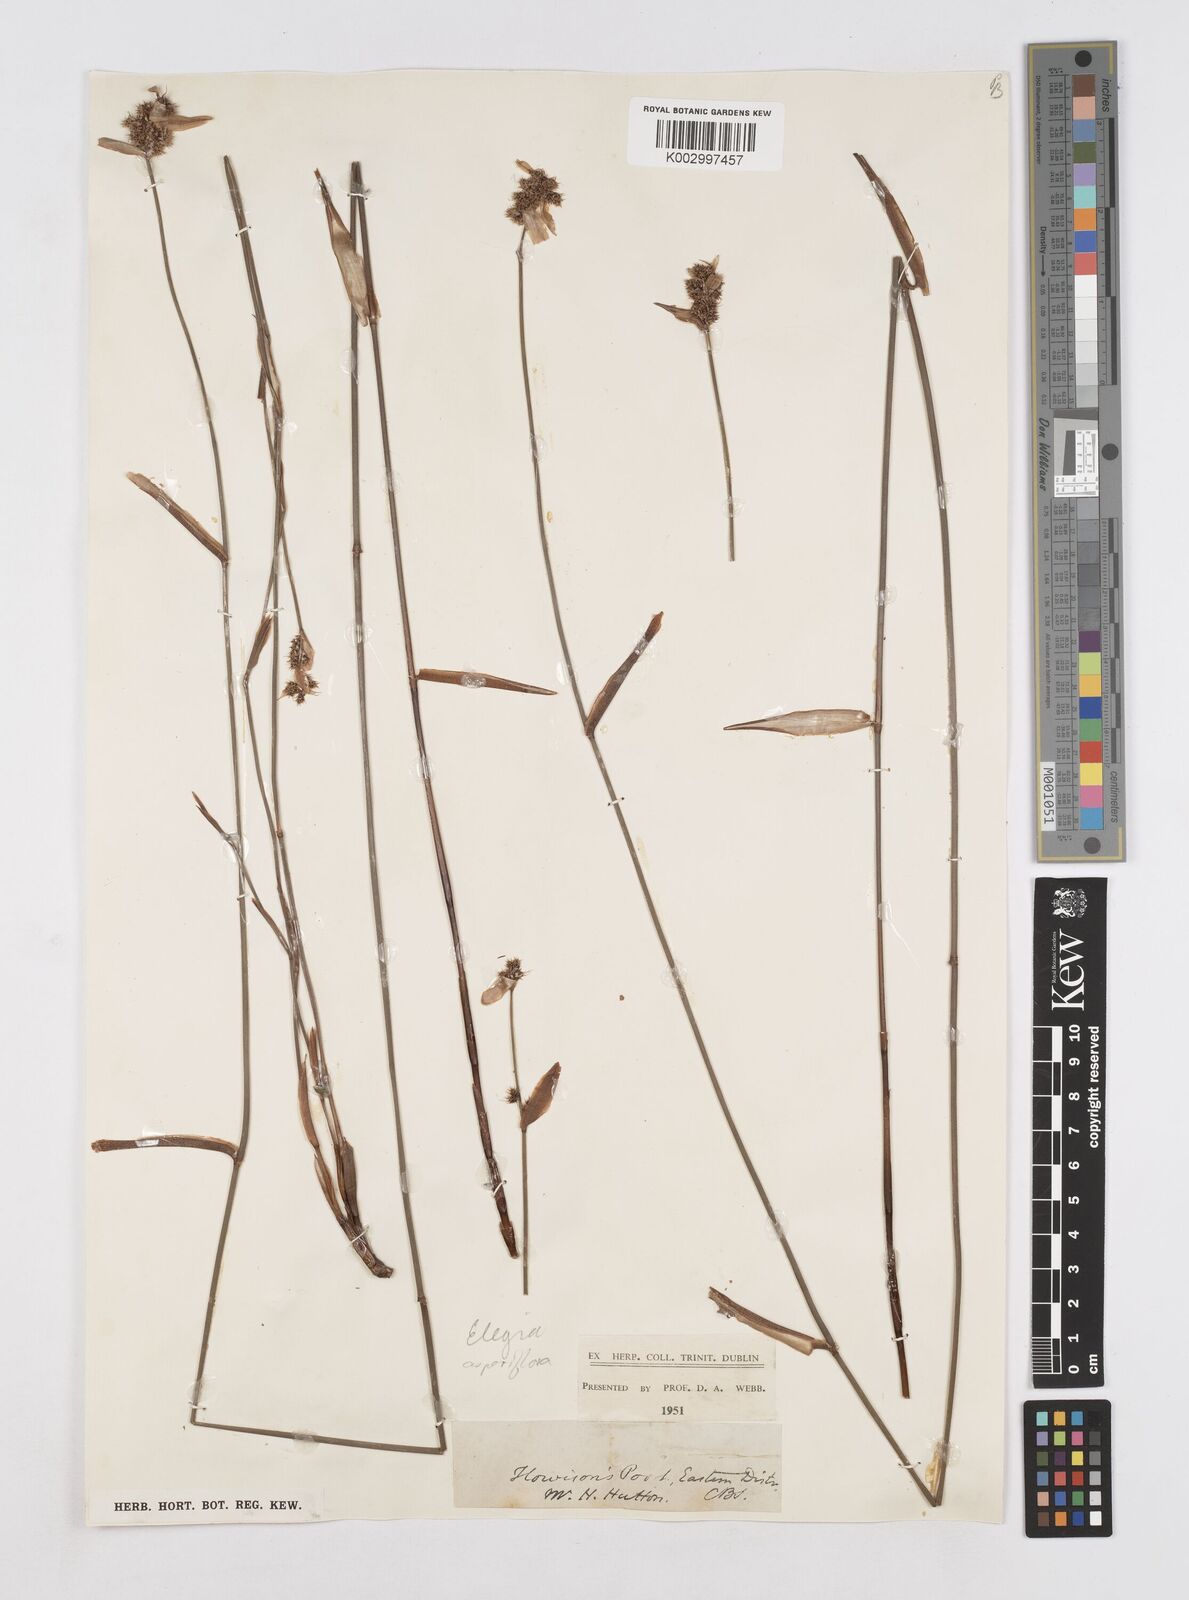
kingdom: Plantae
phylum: Tracheophyta
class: Liliopsida
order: Poales
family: Restionaceae
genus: Elegia
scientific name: Elegia asperiflora
